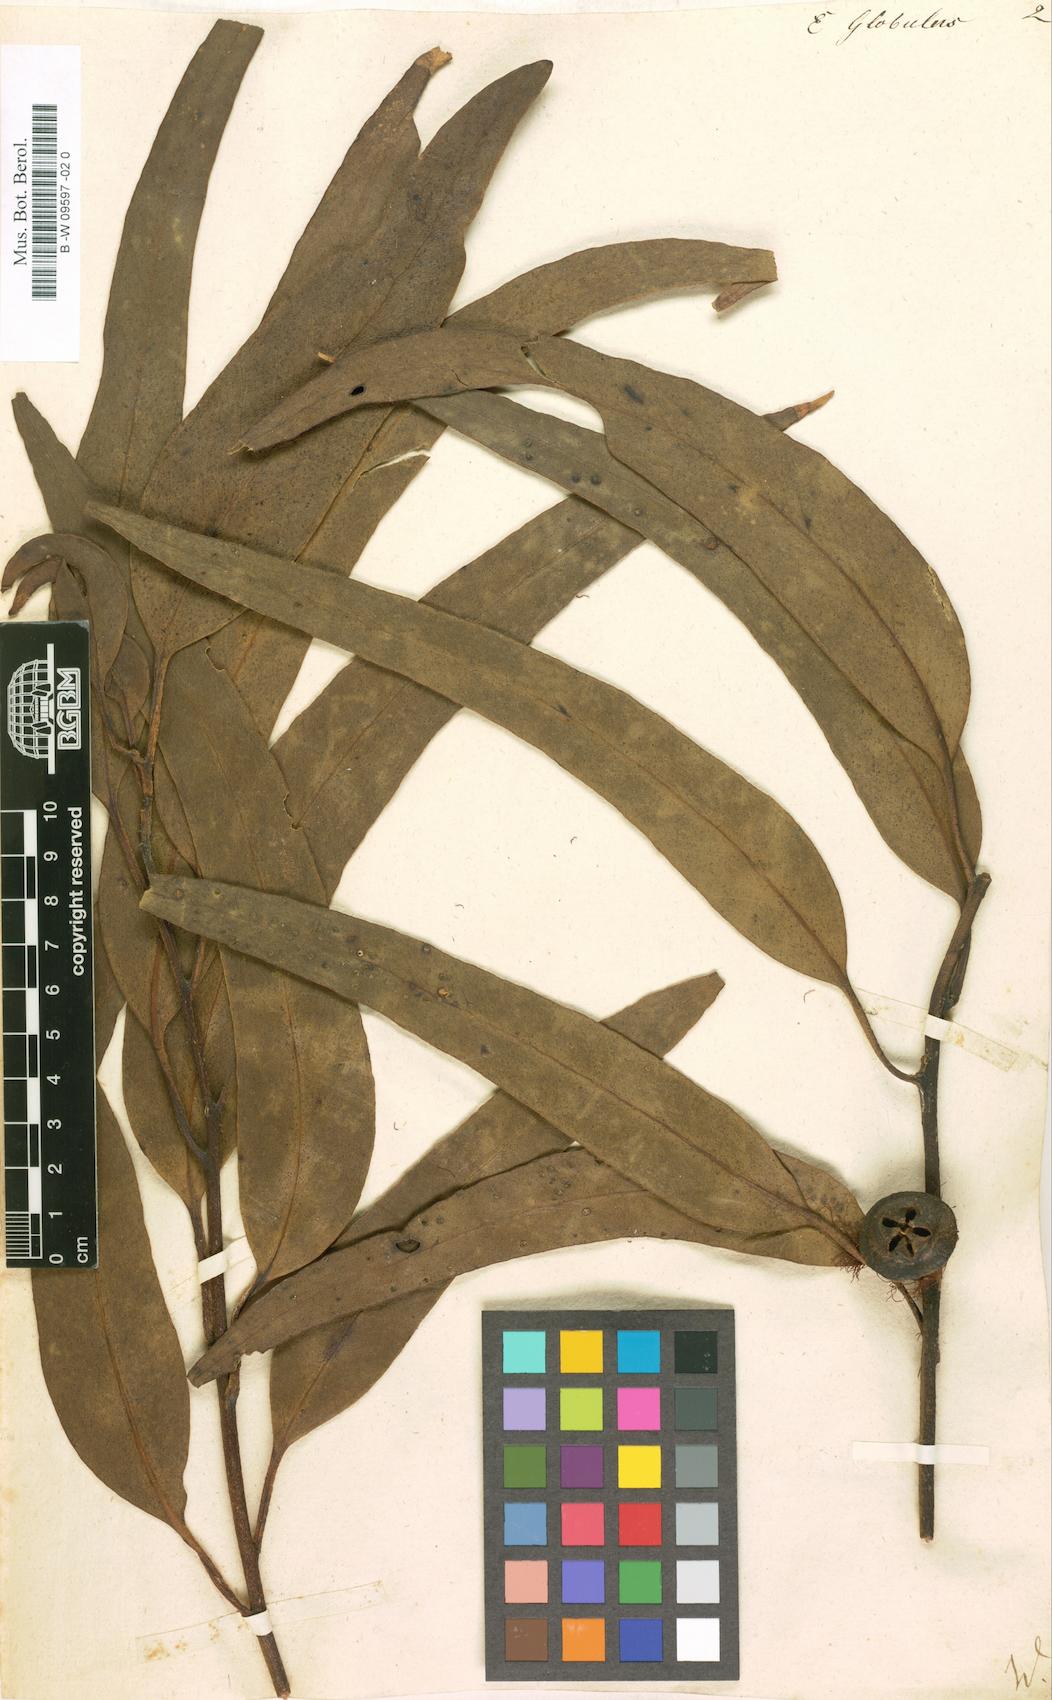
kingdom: Plantae
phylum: Tracheophyta
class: Magnoliopsida
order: Myrtales
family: Myrtaceae
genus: Eucalyptus
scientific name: Eucalyptus globulus
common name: Southern blue-gum
